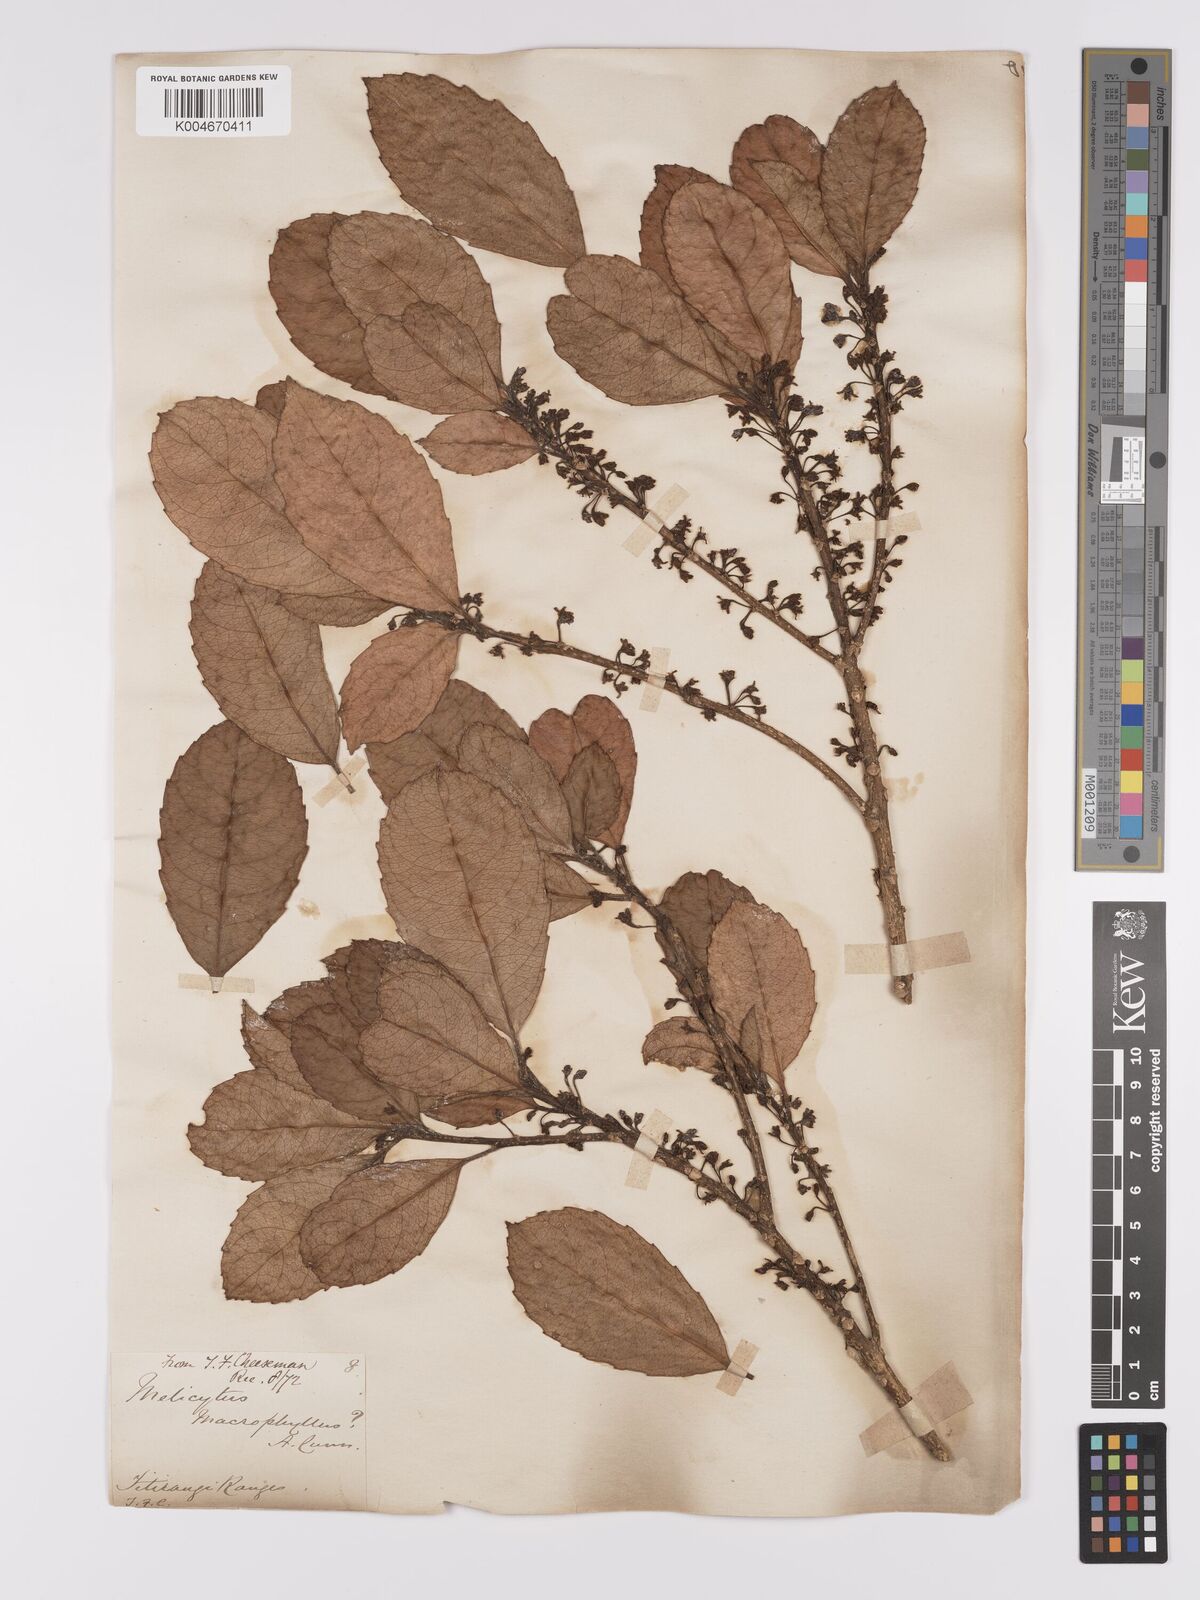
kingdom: Plantae
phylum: Tracheophyta
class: Magnoliopsida
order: Malpighiales
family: Violaceae
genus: Melicytus
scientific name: Melicytus macrophyllus
